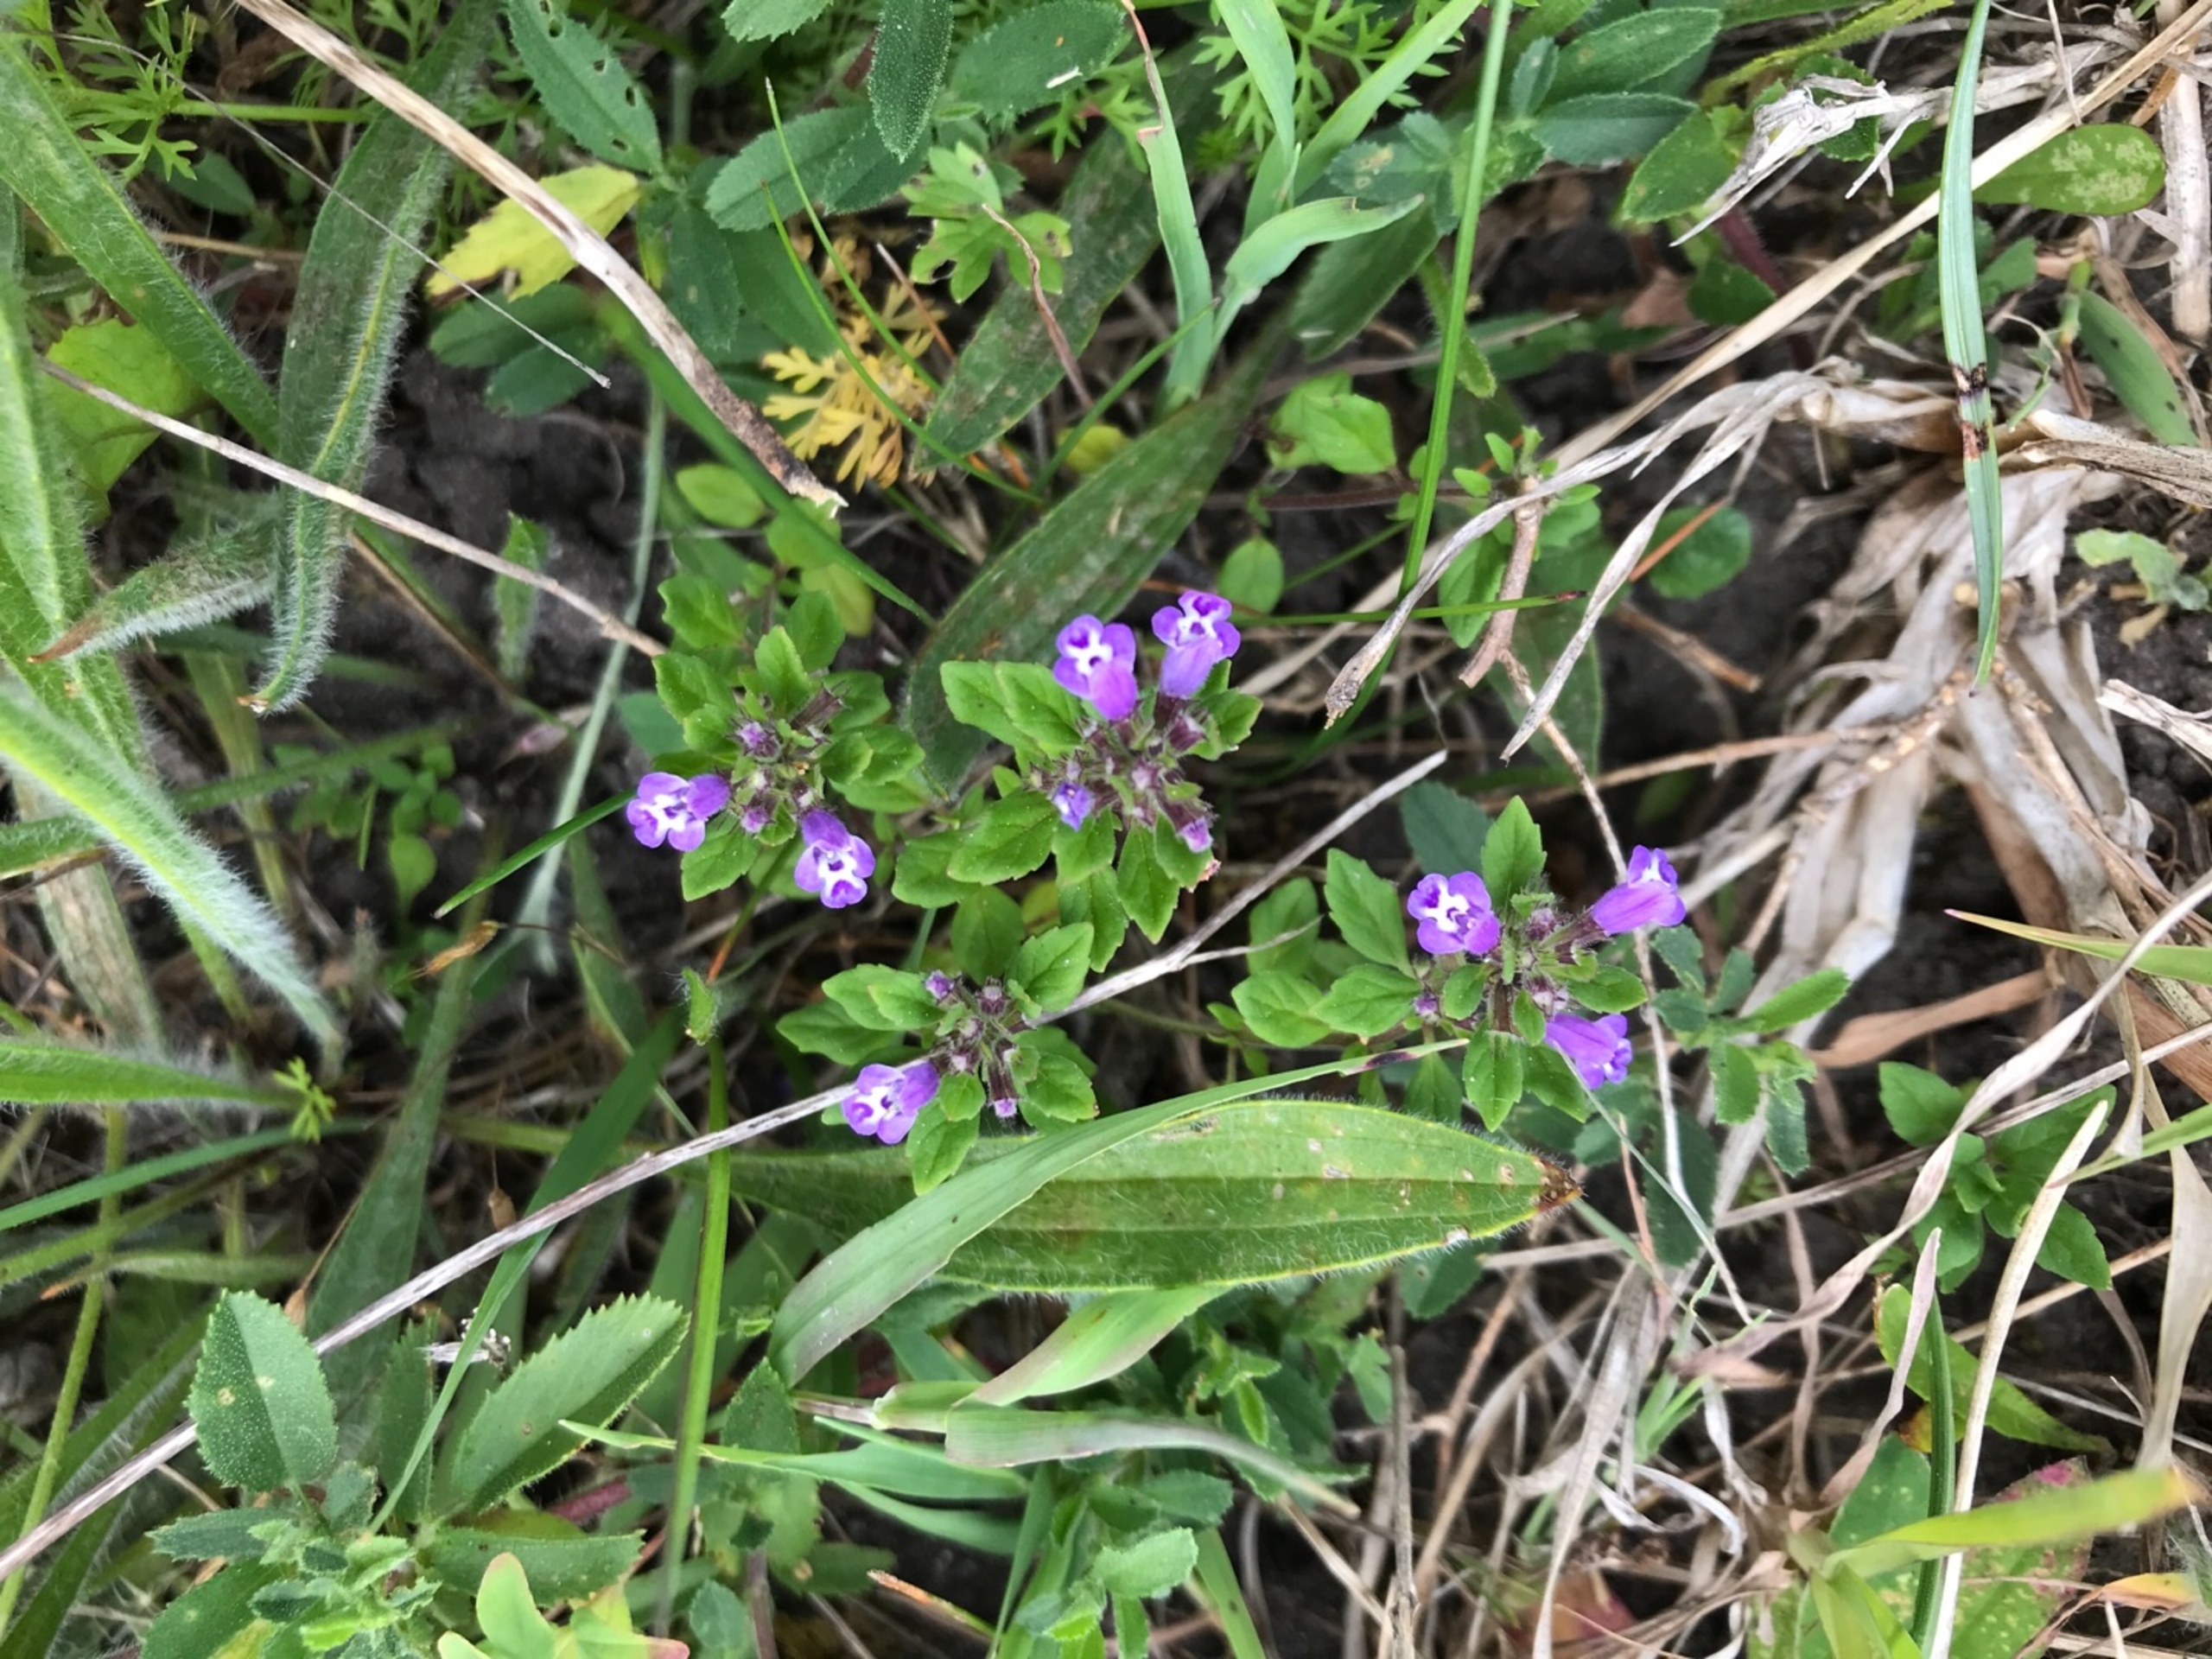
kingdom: Plantae
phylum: Tracheophyta
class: Magnoliopsida
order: Lamiales
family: Lamiaceae
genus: Clinopodium
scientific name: Clinopodium acinos
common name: Voldtimian
